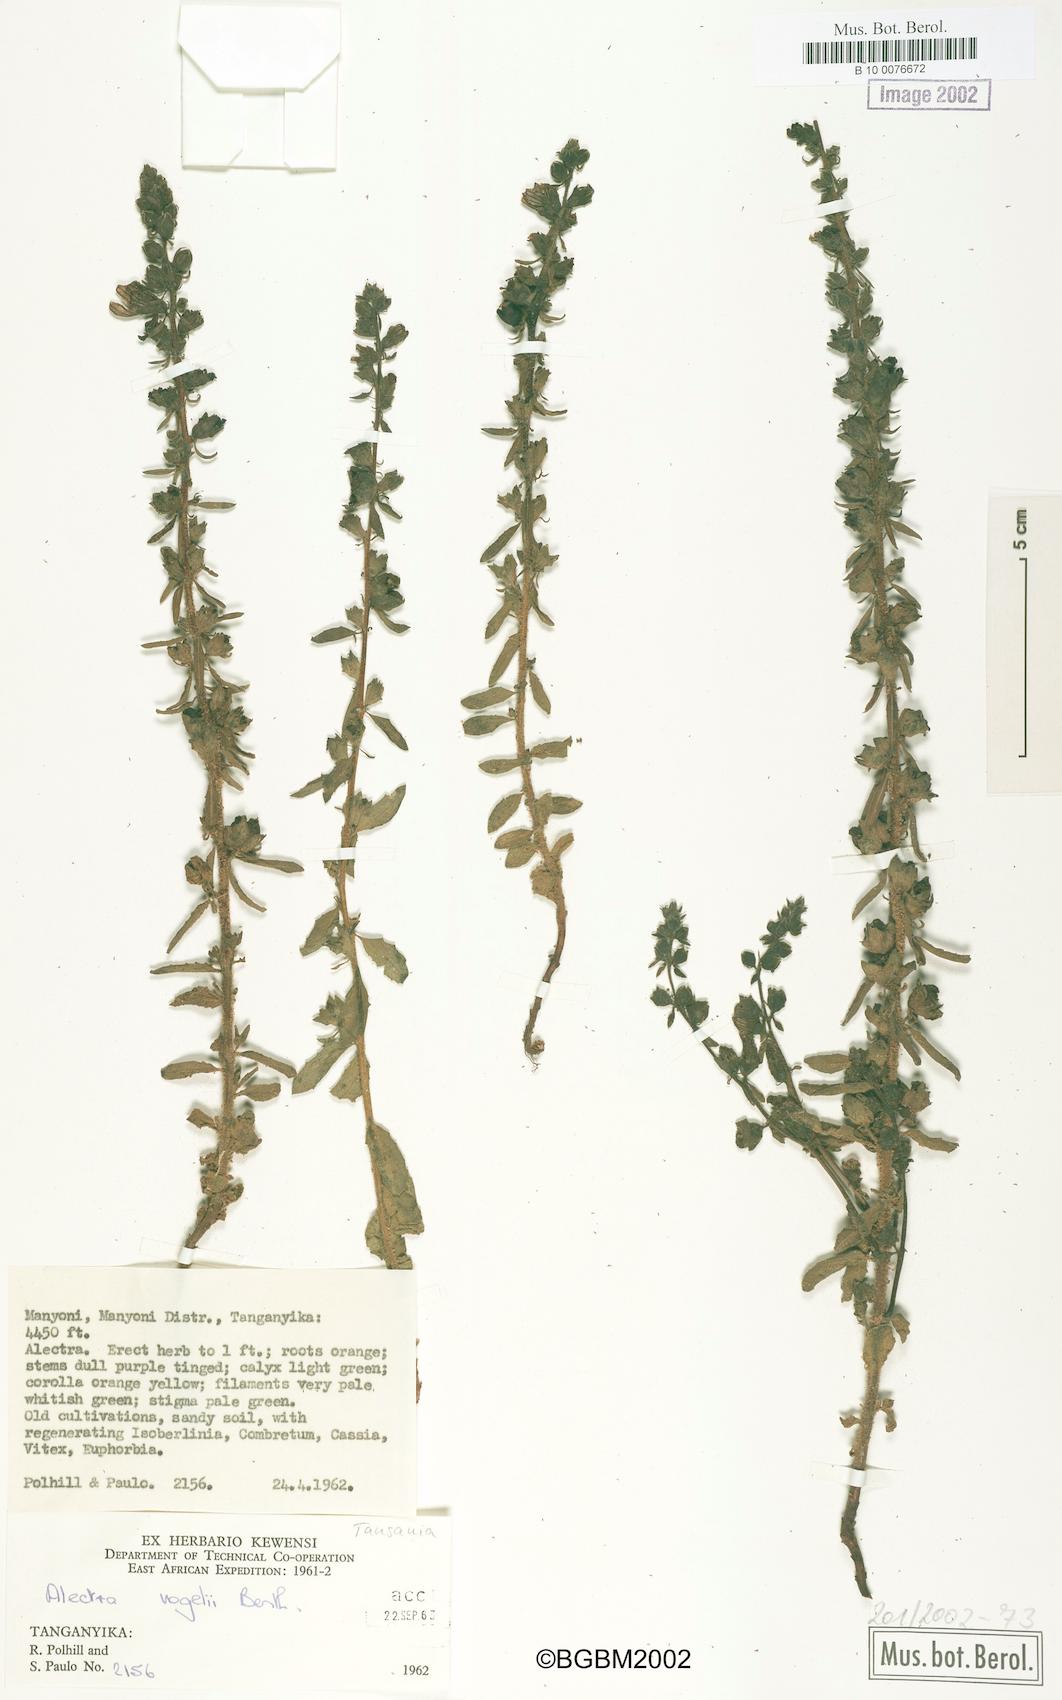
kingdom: Plantae
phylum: Tracheophyta
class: Magnoliopsida
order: Lamiales
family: Orobanchaceae
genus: Alectra
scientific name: Alectra vogelii
